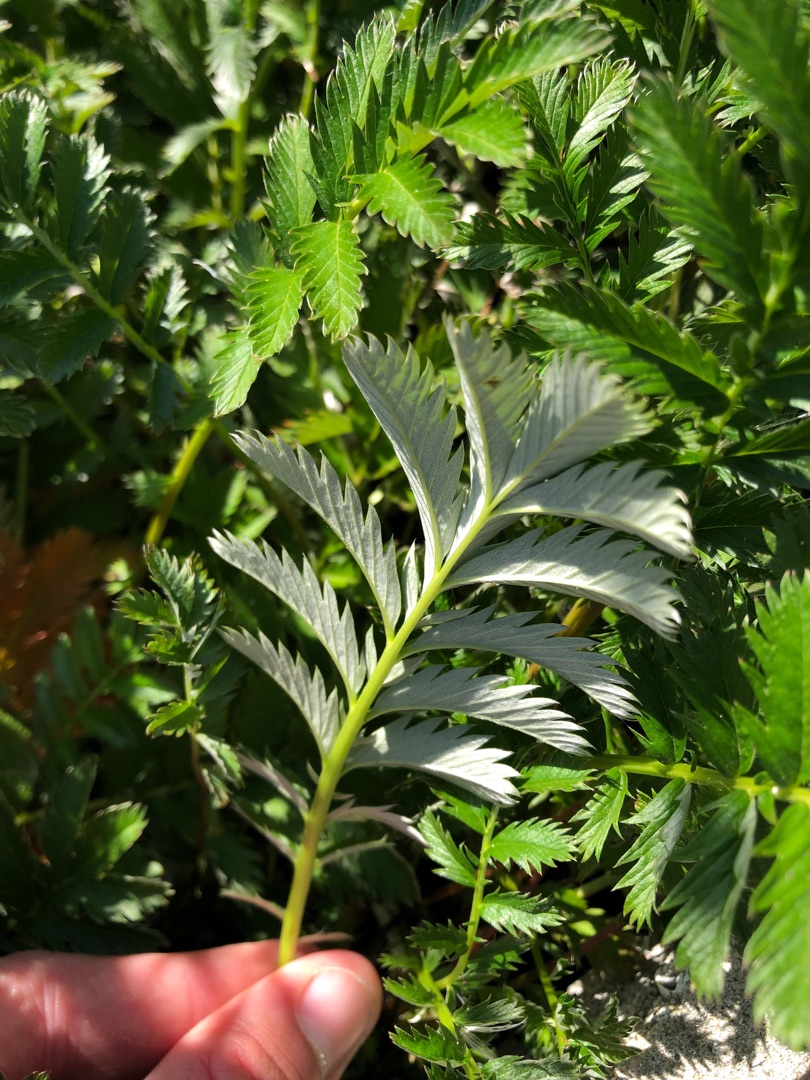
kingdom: Plantae
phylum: Tracheophyta
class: Magnoliopsida
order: Rosales
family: Rosaceae
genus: Argentina
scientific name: Argentina anserina
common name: Gåsepotentil
